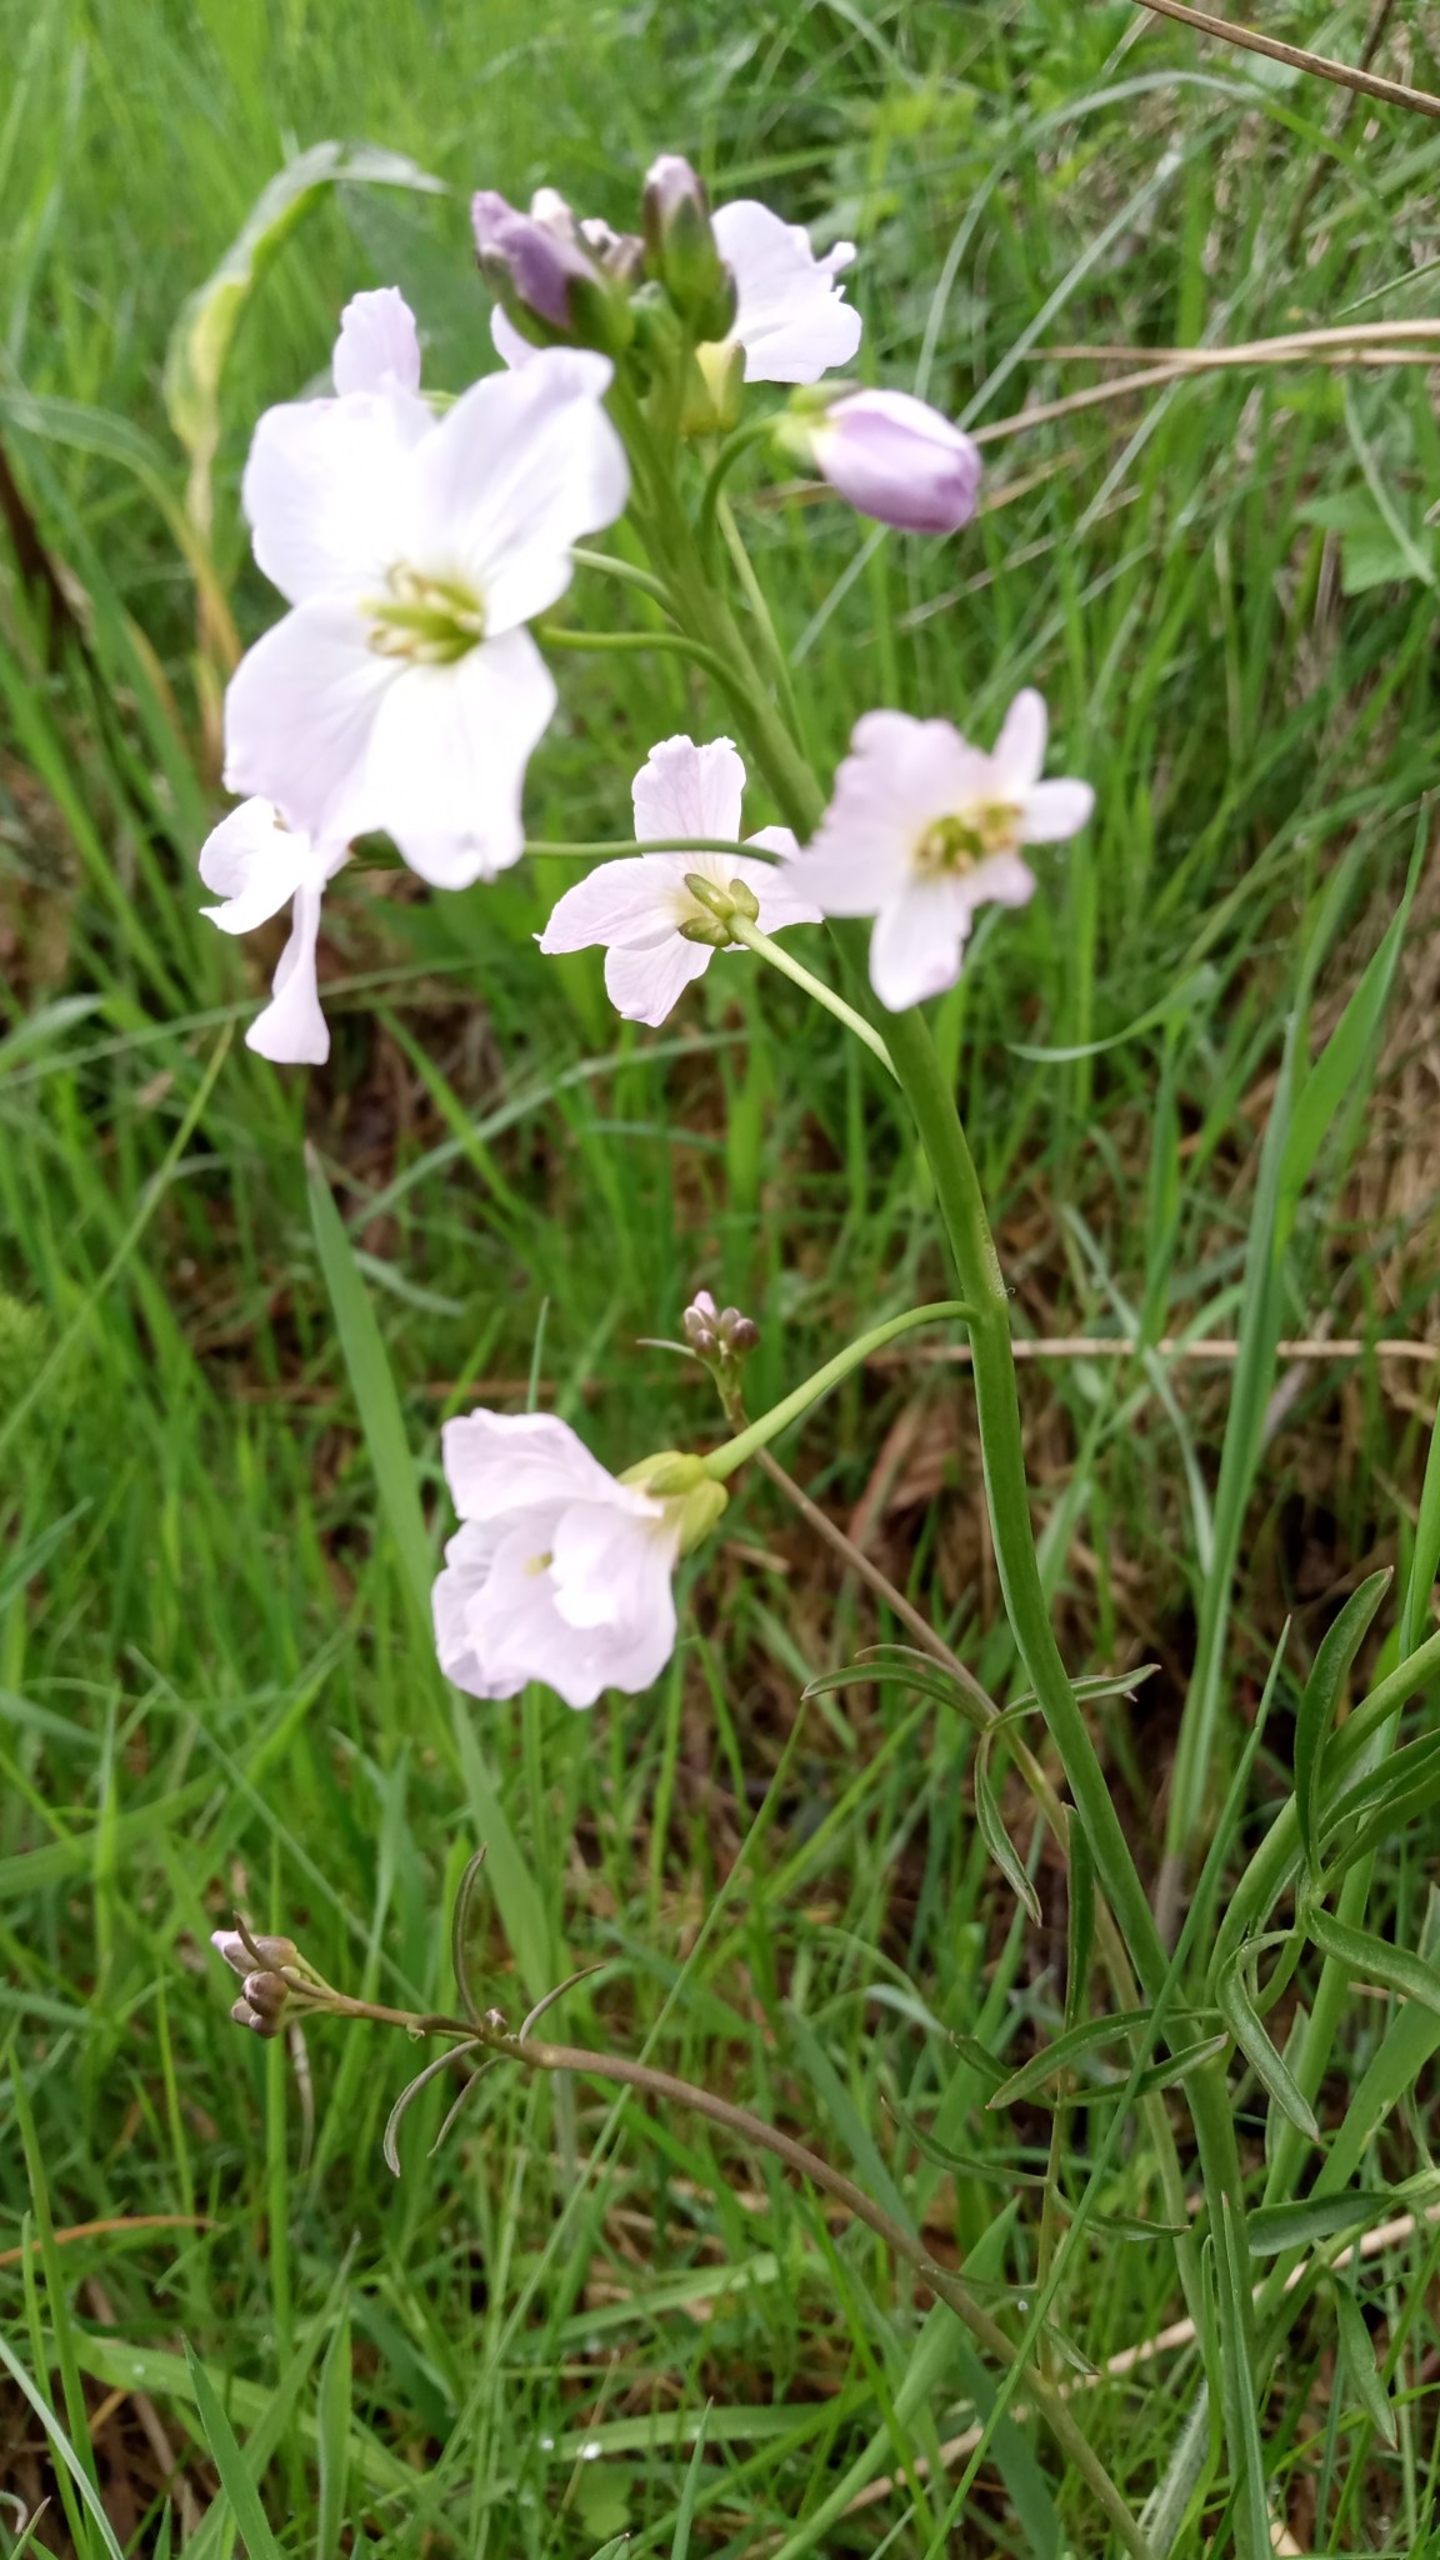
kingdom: Plantae
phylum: Tracheophyta
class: Magnoliopsida
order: Brassicales
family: Brassicaceae
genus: Cardamine
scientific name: Cardamine pratensis
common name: Engkarse
